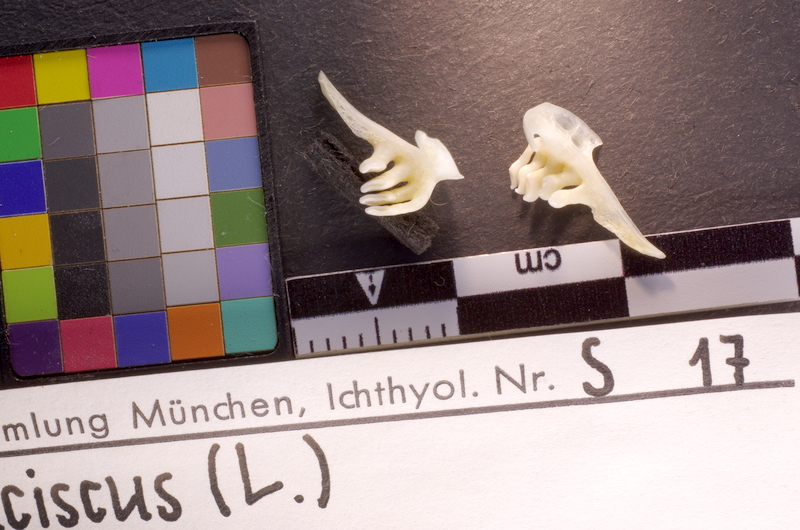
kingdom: Animalia
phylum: Chordata
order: Cypriniformes
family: Cyprinidae
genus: Leuciscus
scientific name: Leuciscus leuciscus
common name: Dace
